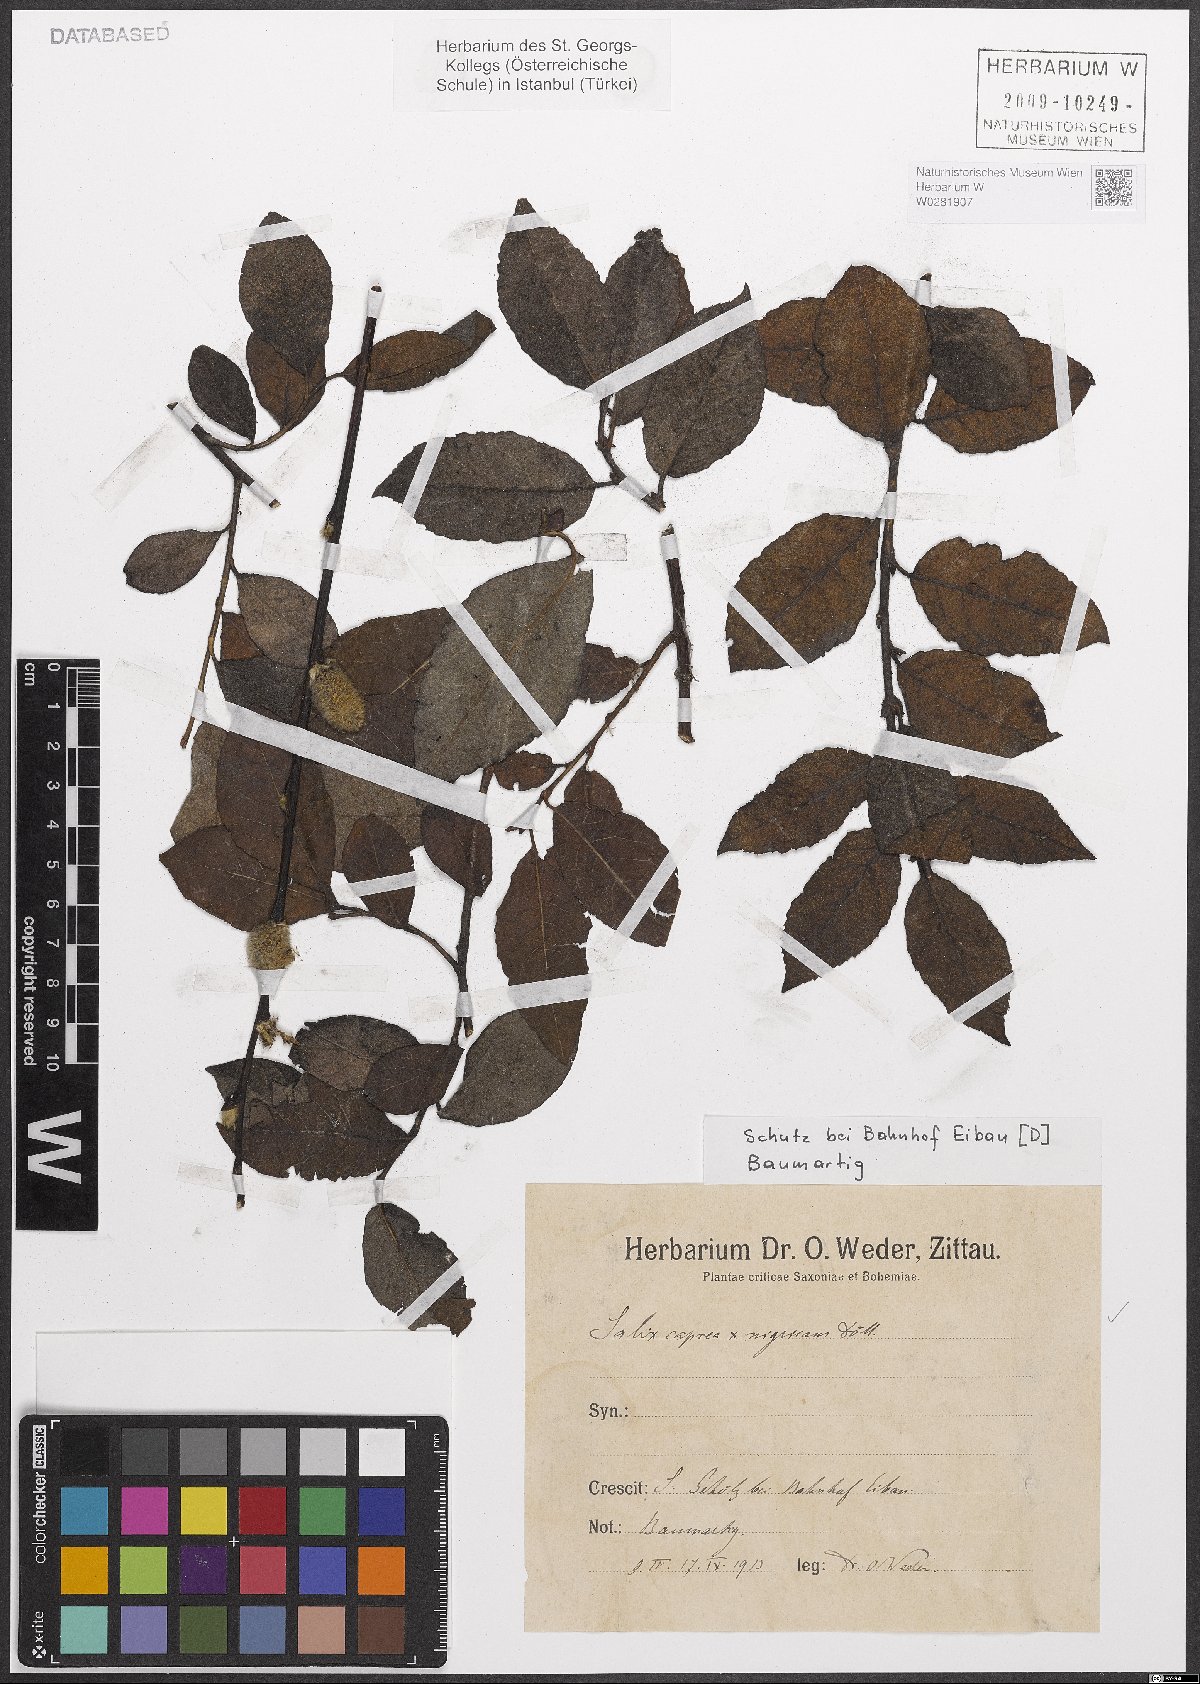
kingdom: Plantae
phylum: Tracheophyta
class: Magnoliopsida
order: Malpighiales
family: Salicaceae
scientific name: Salicaceae
